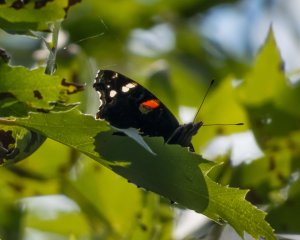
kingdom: Animalia
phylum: Arthropoda
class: Insecta
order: Lepidoptera
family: Nymphalidae
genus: Vanessa
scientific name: Vanessa atalanta
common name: Red Admiral
